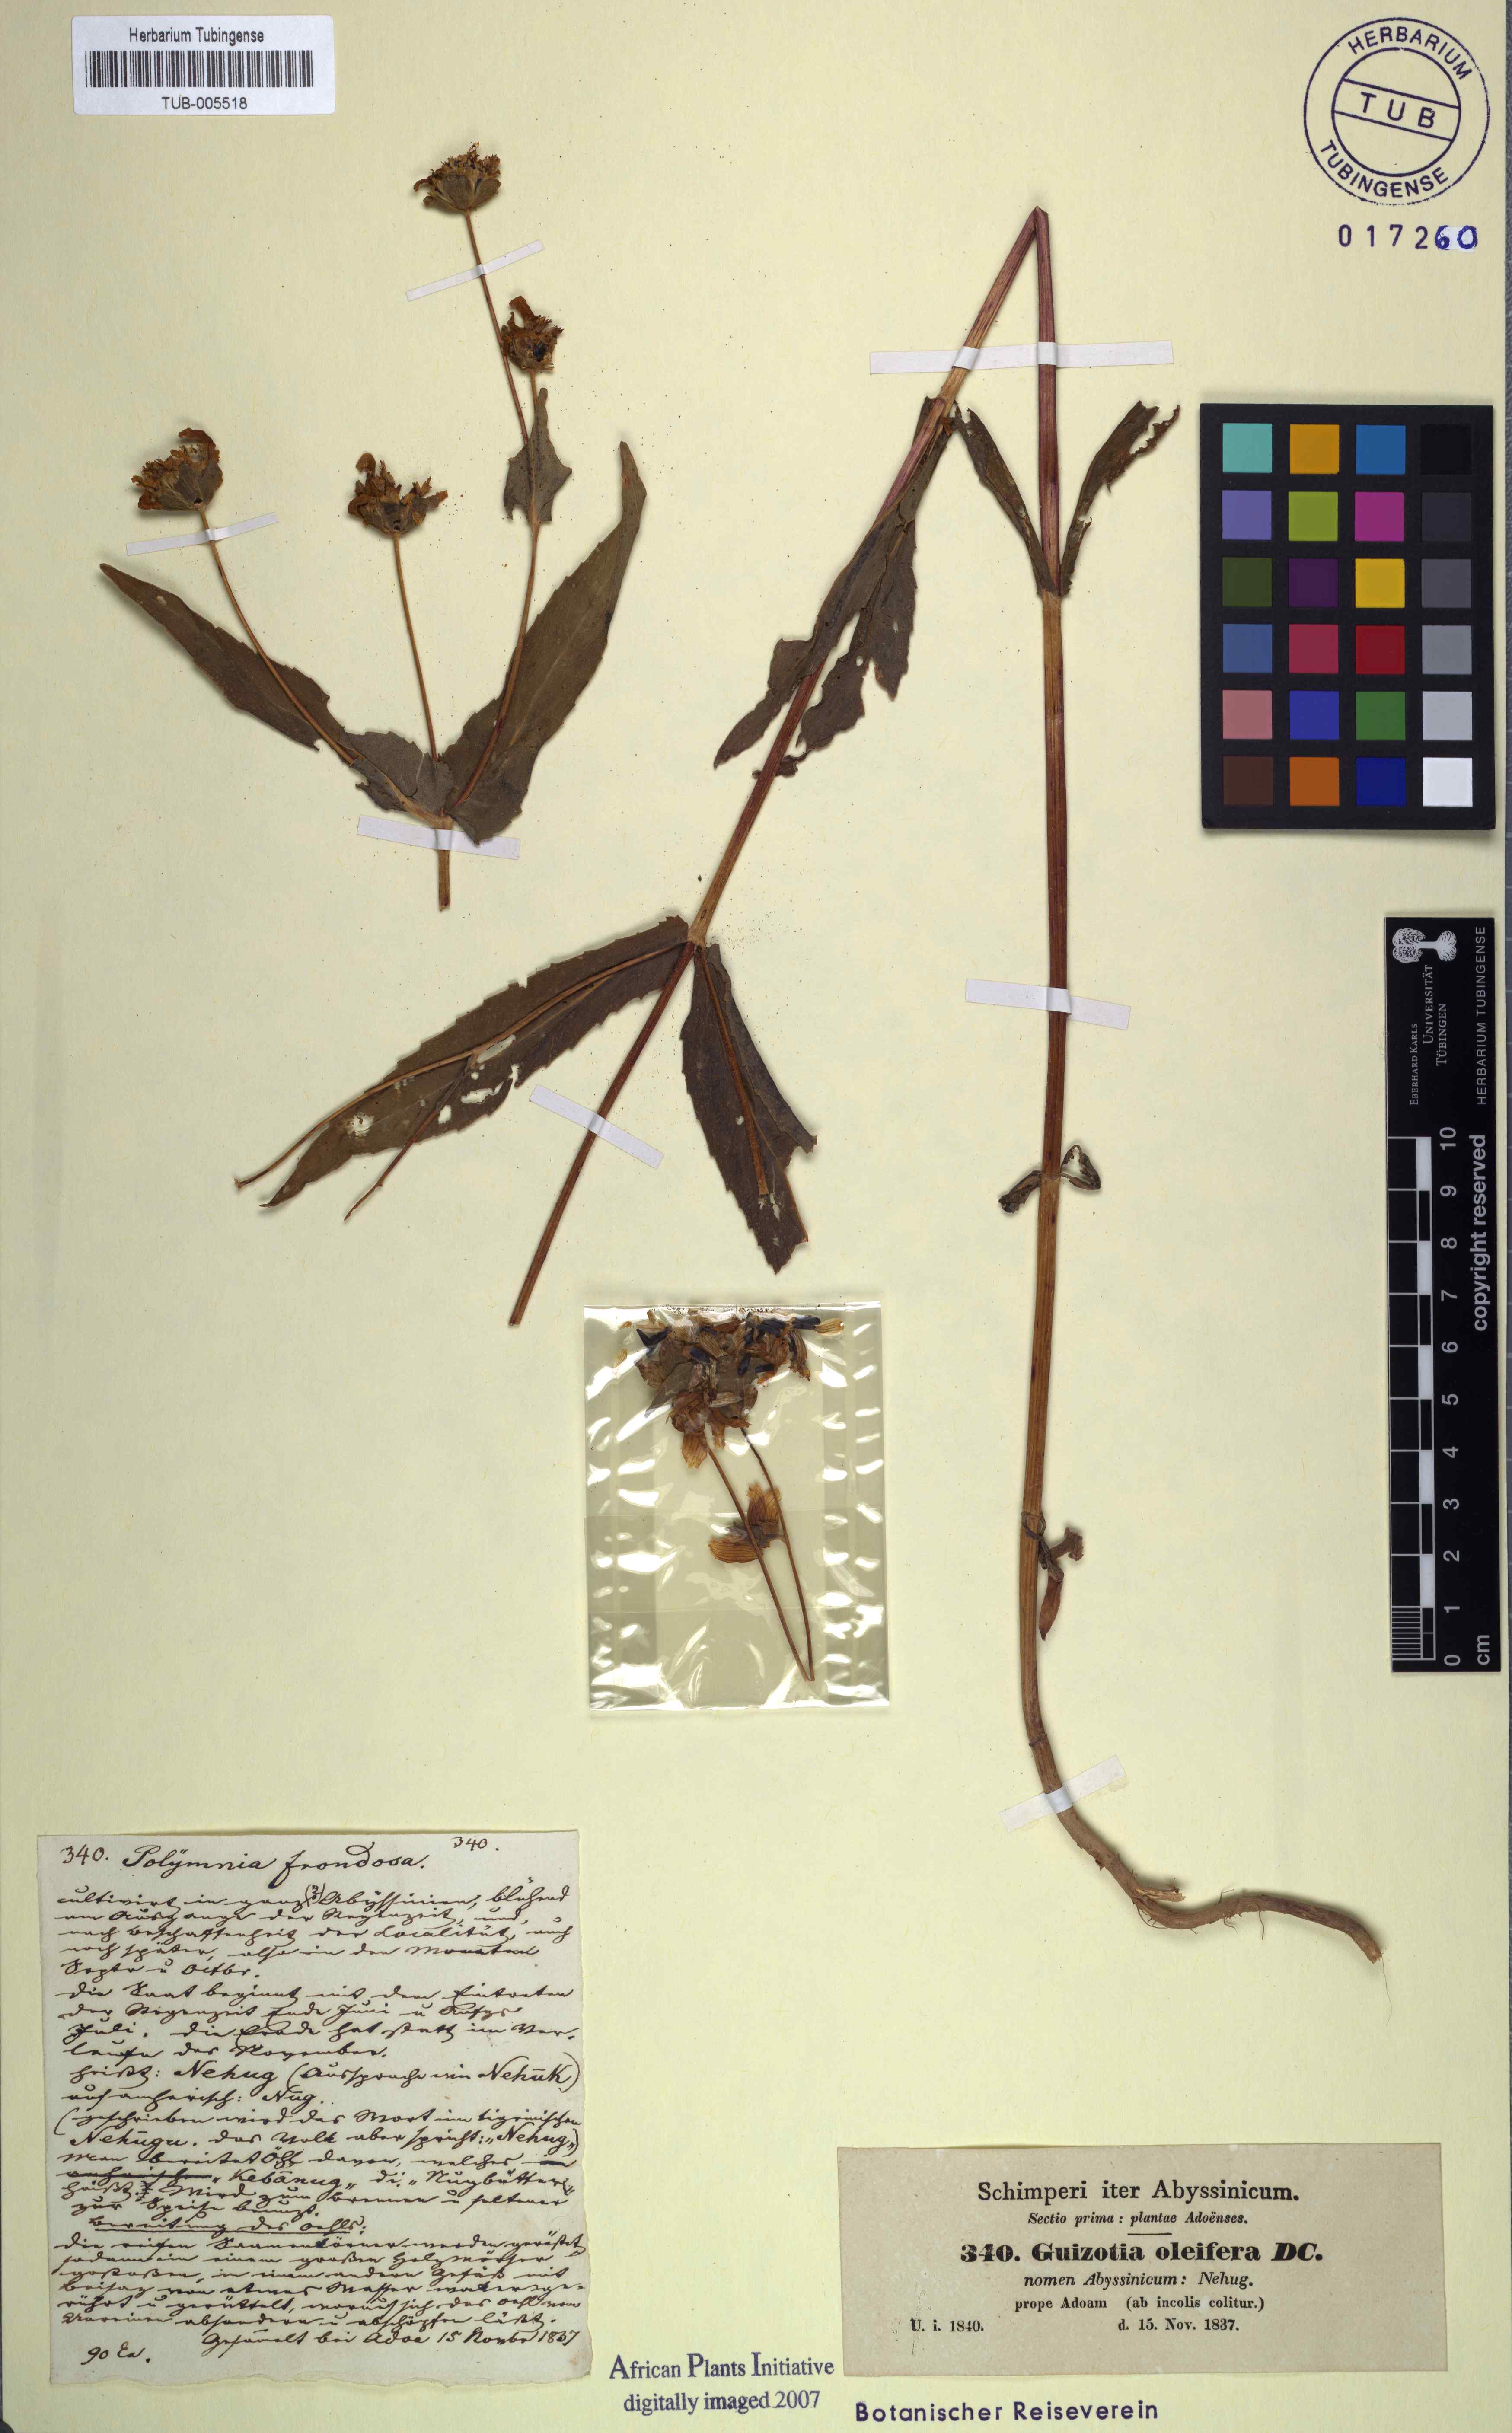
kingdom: Plantae
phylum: Tracheophyta
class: Magnoliopsida
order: Asterales
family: Asteraceae
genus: Guizotia
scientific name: Guizotia abyssinica
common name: Niger
